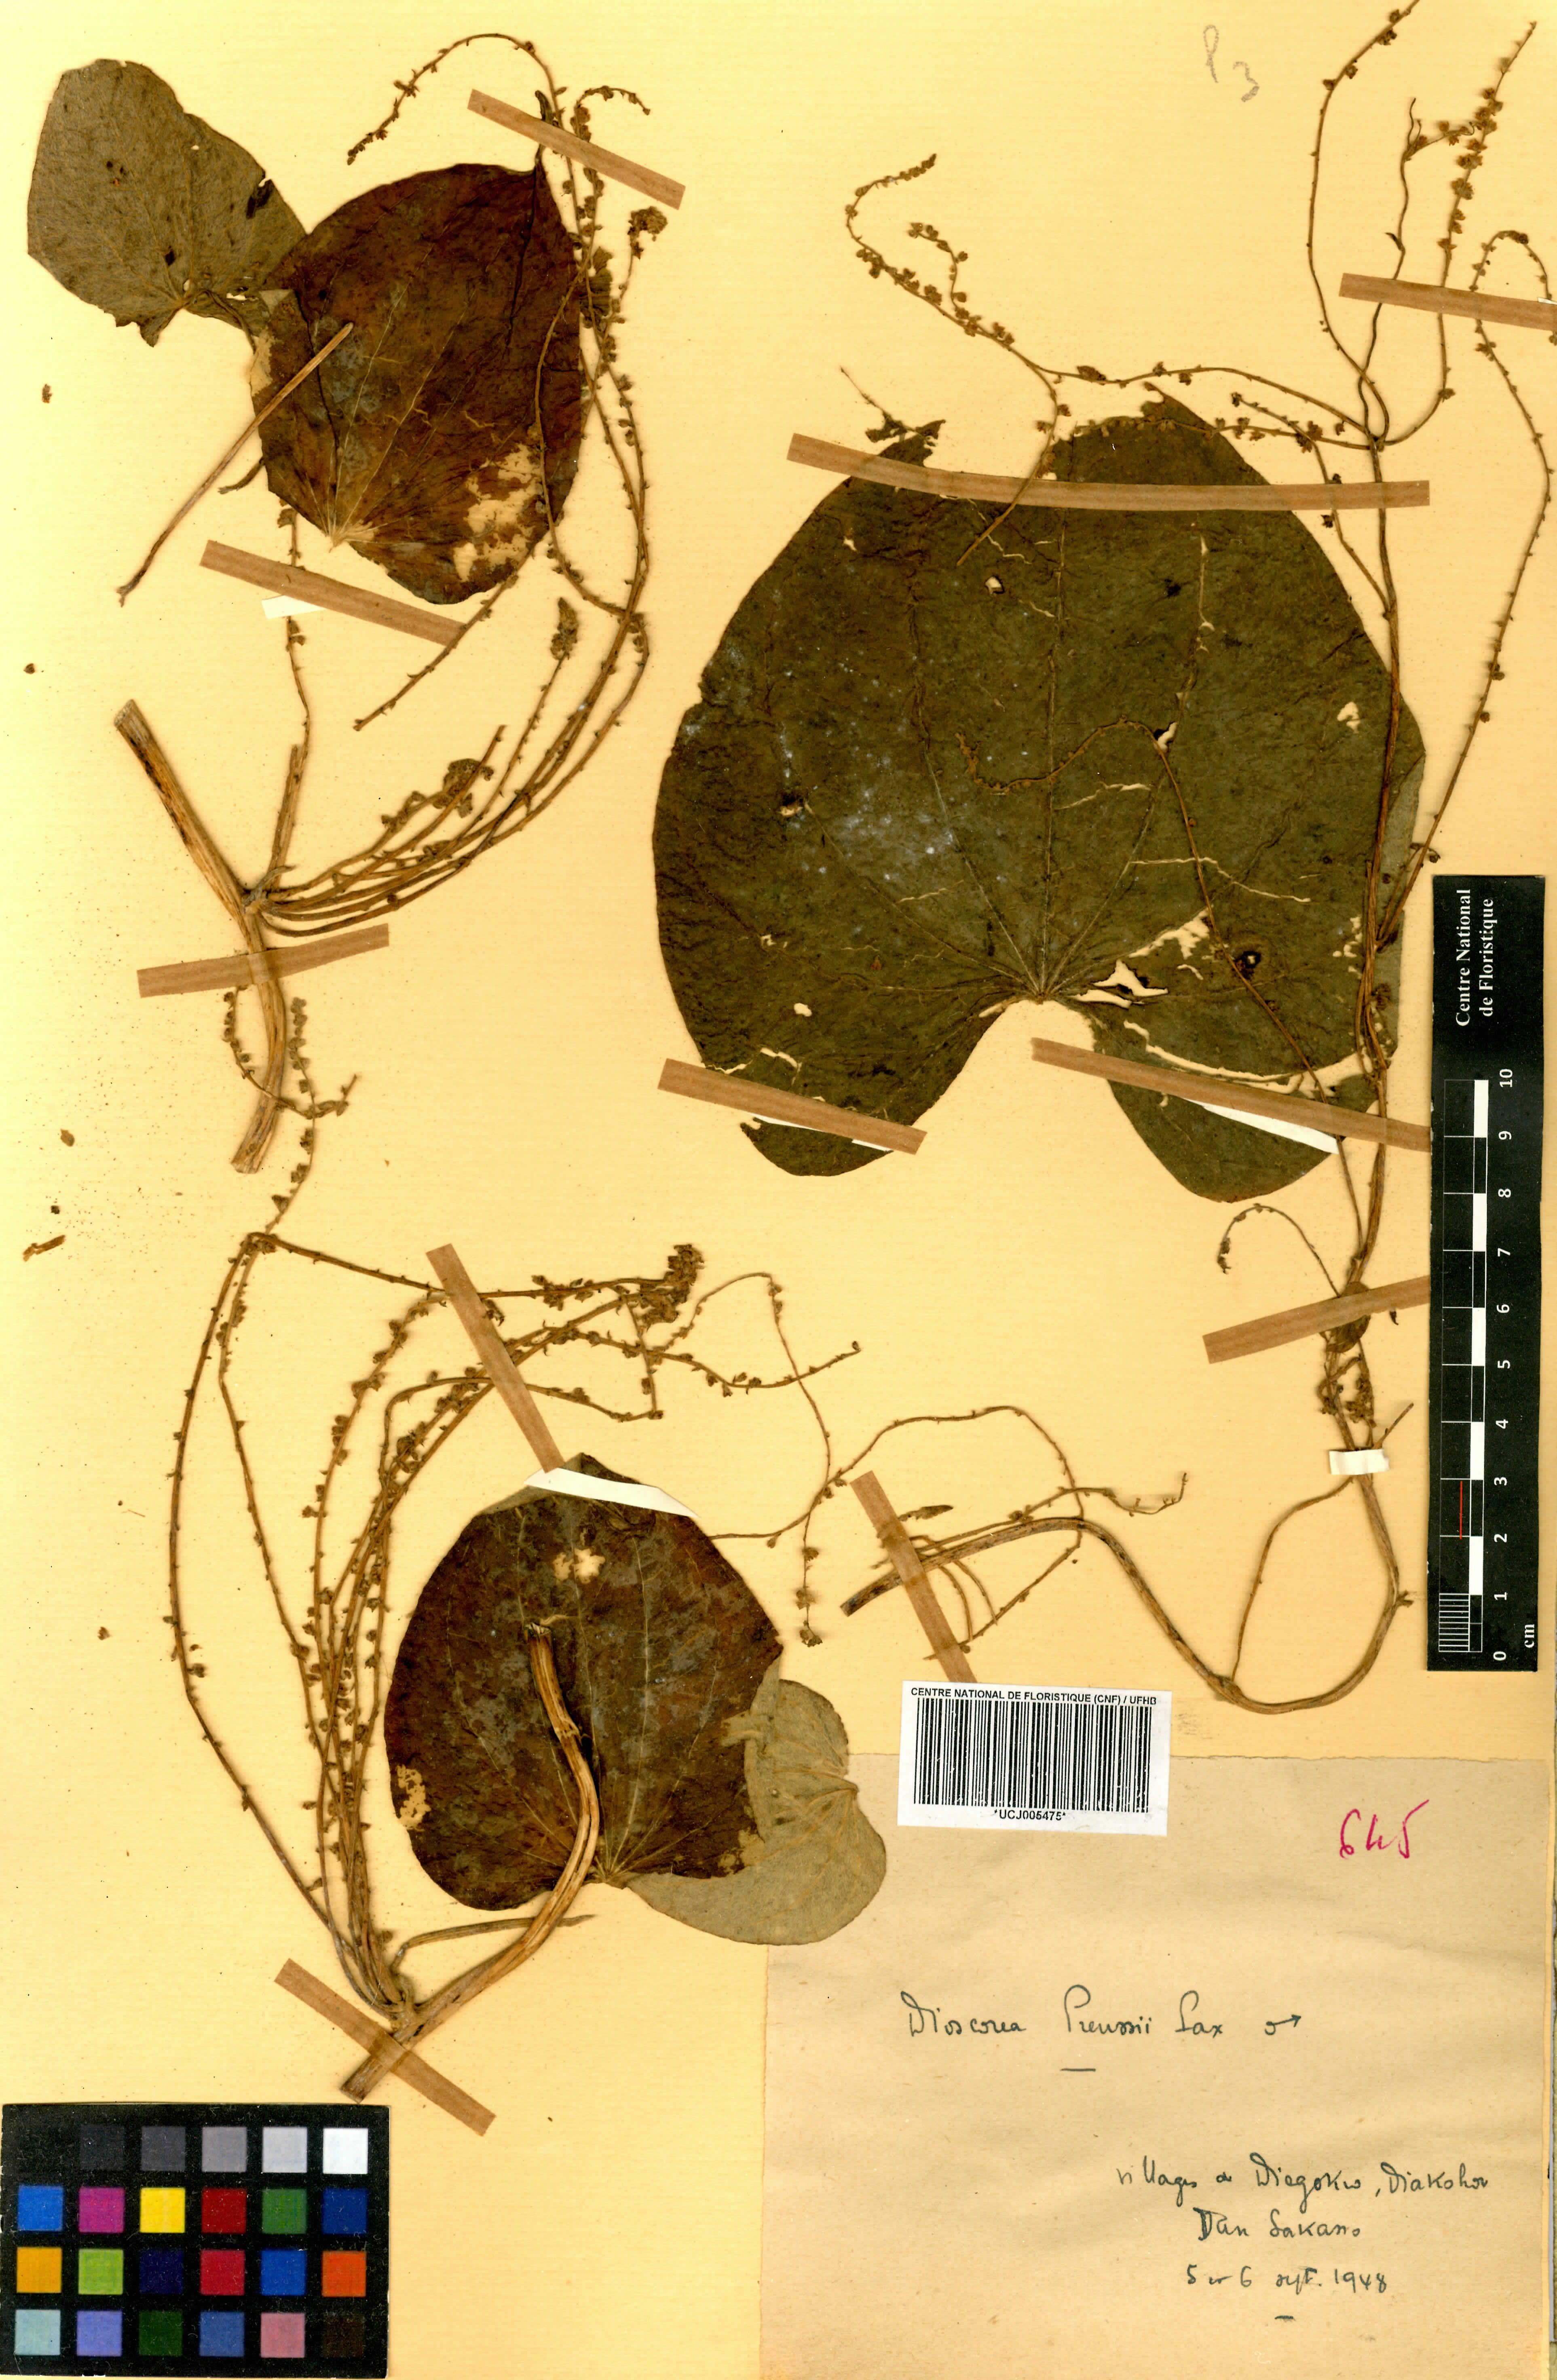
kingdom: Plantae
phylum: Tracheophyta
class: Liliopsida
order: Dioscoreales
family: Dioscoreaceae
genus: Dioscorea
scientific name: Dioscorea preussii
